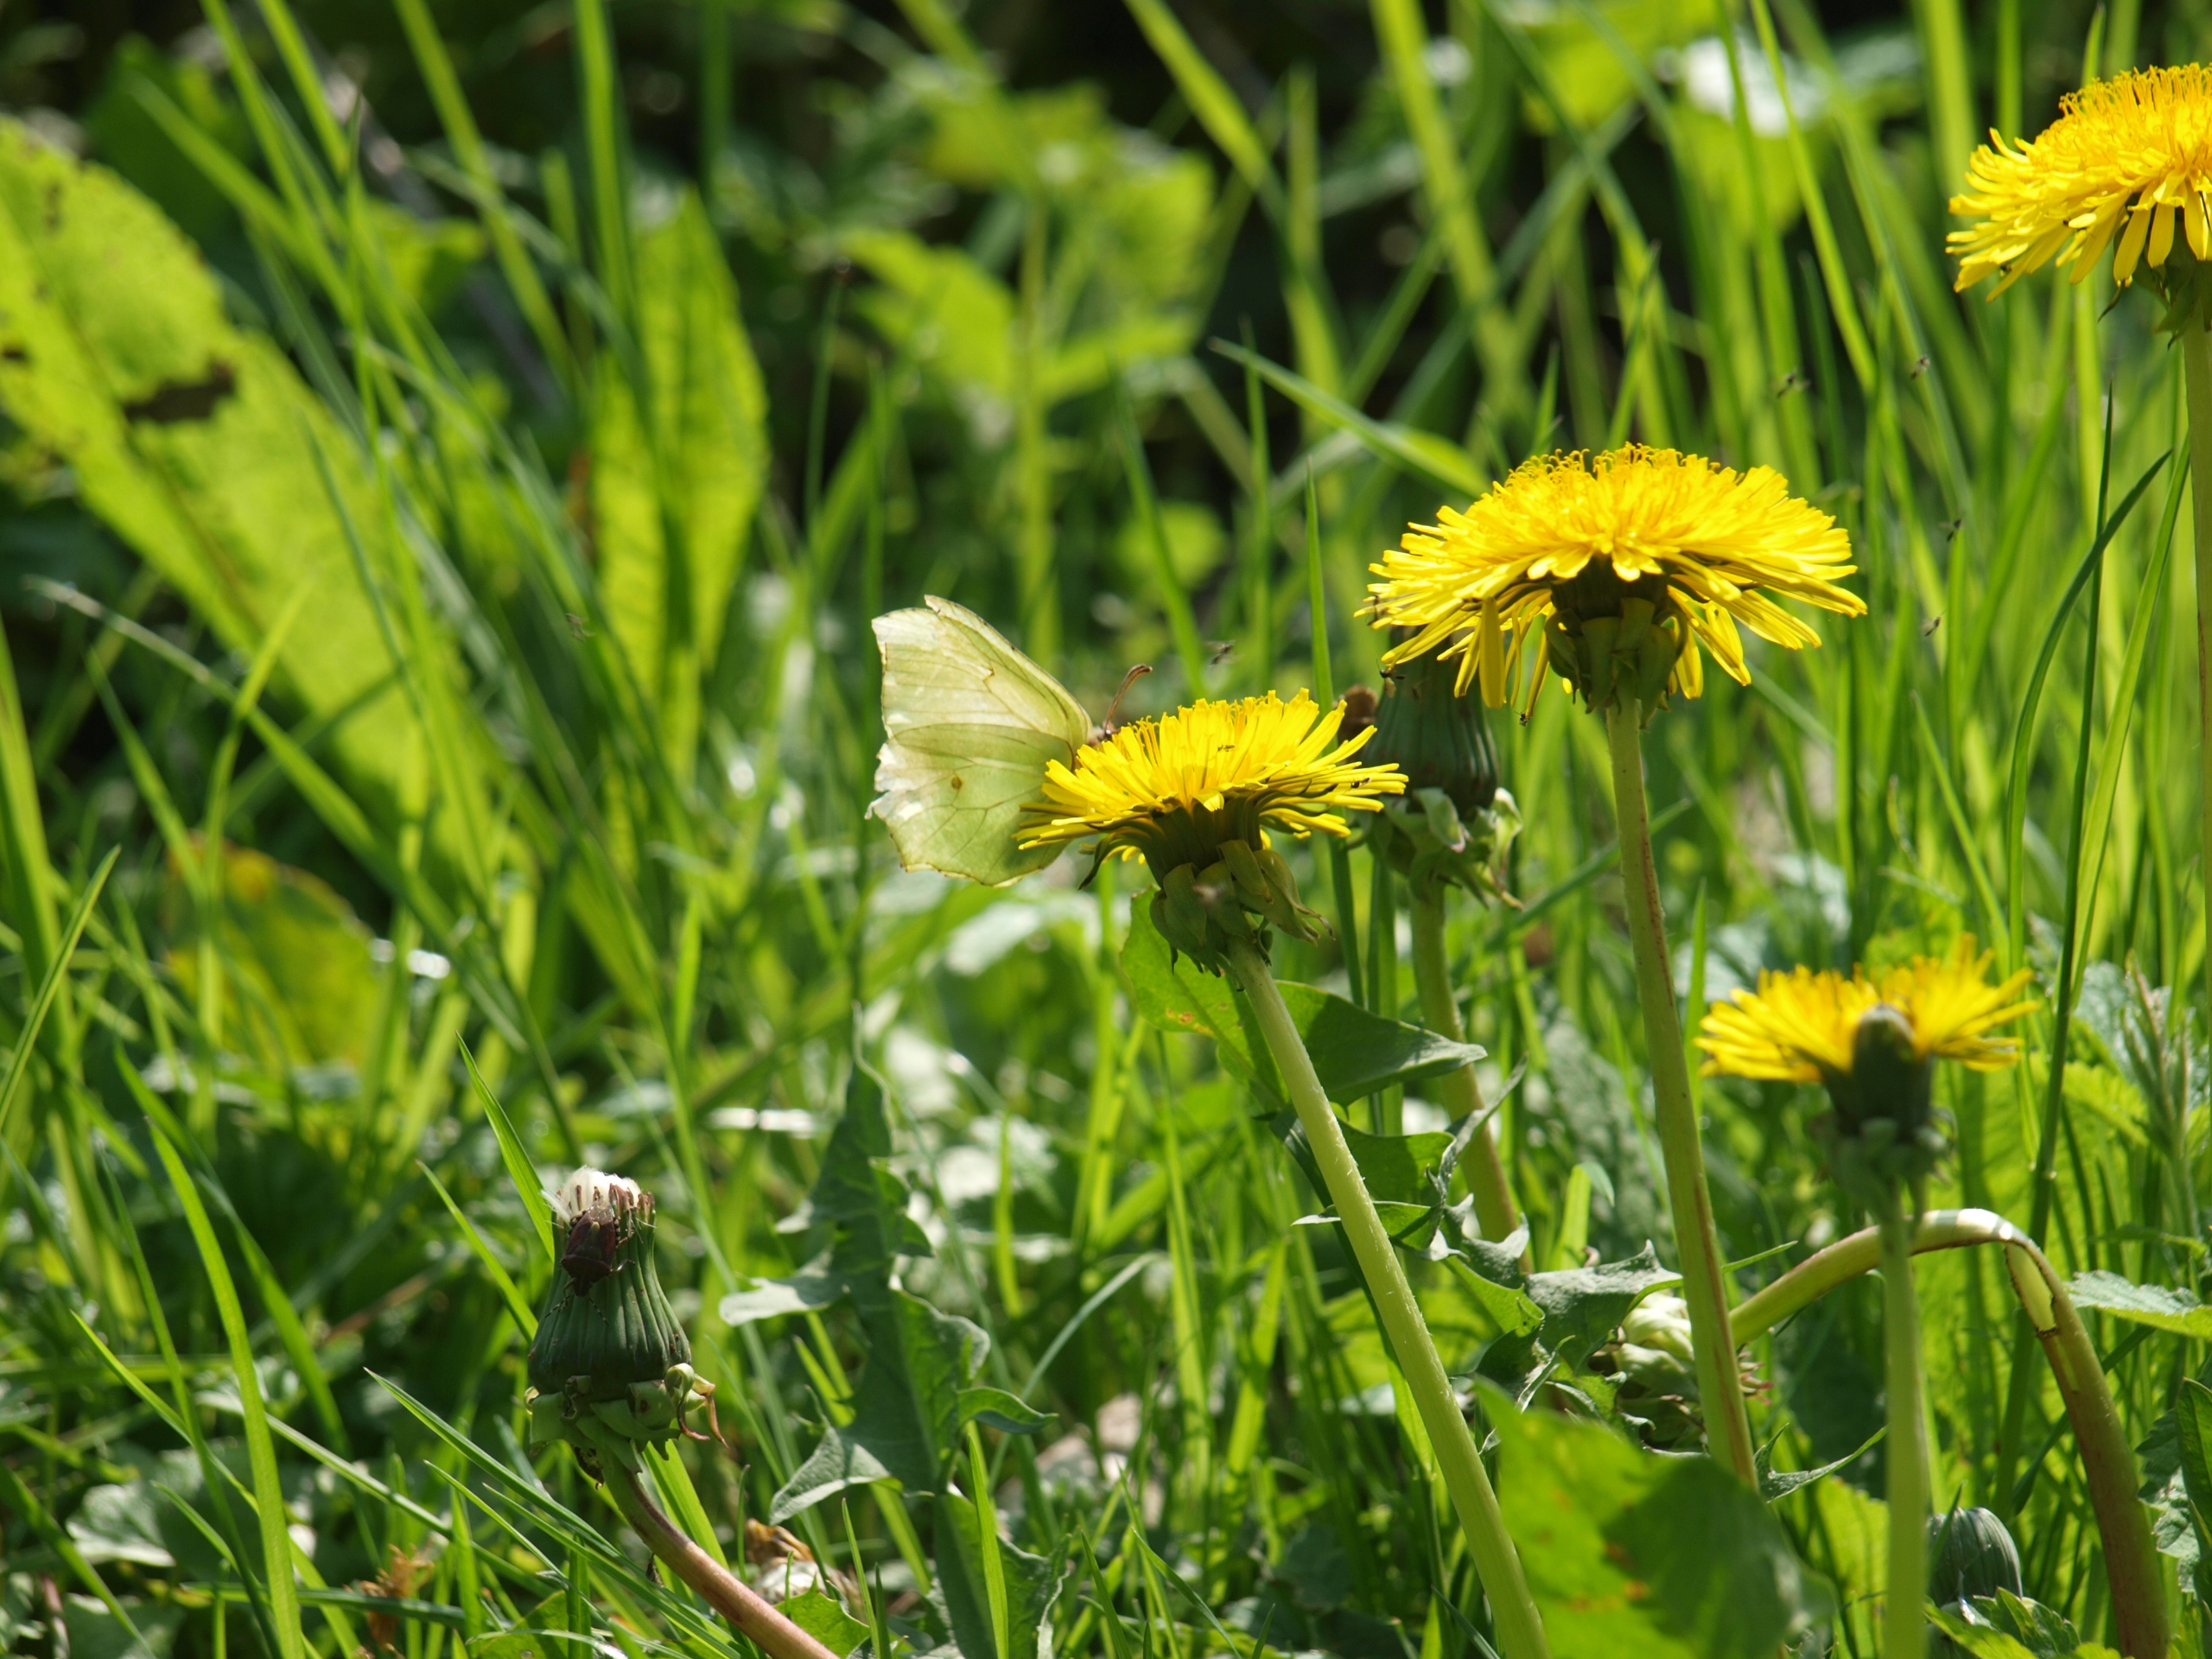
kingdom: Animalia
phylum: Arthropoda
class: Insecta
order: Lepidoptera
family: Pieridae
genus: Gonepteryx
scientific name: Gonepteryx rhamni
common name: Citronsommerfugl
